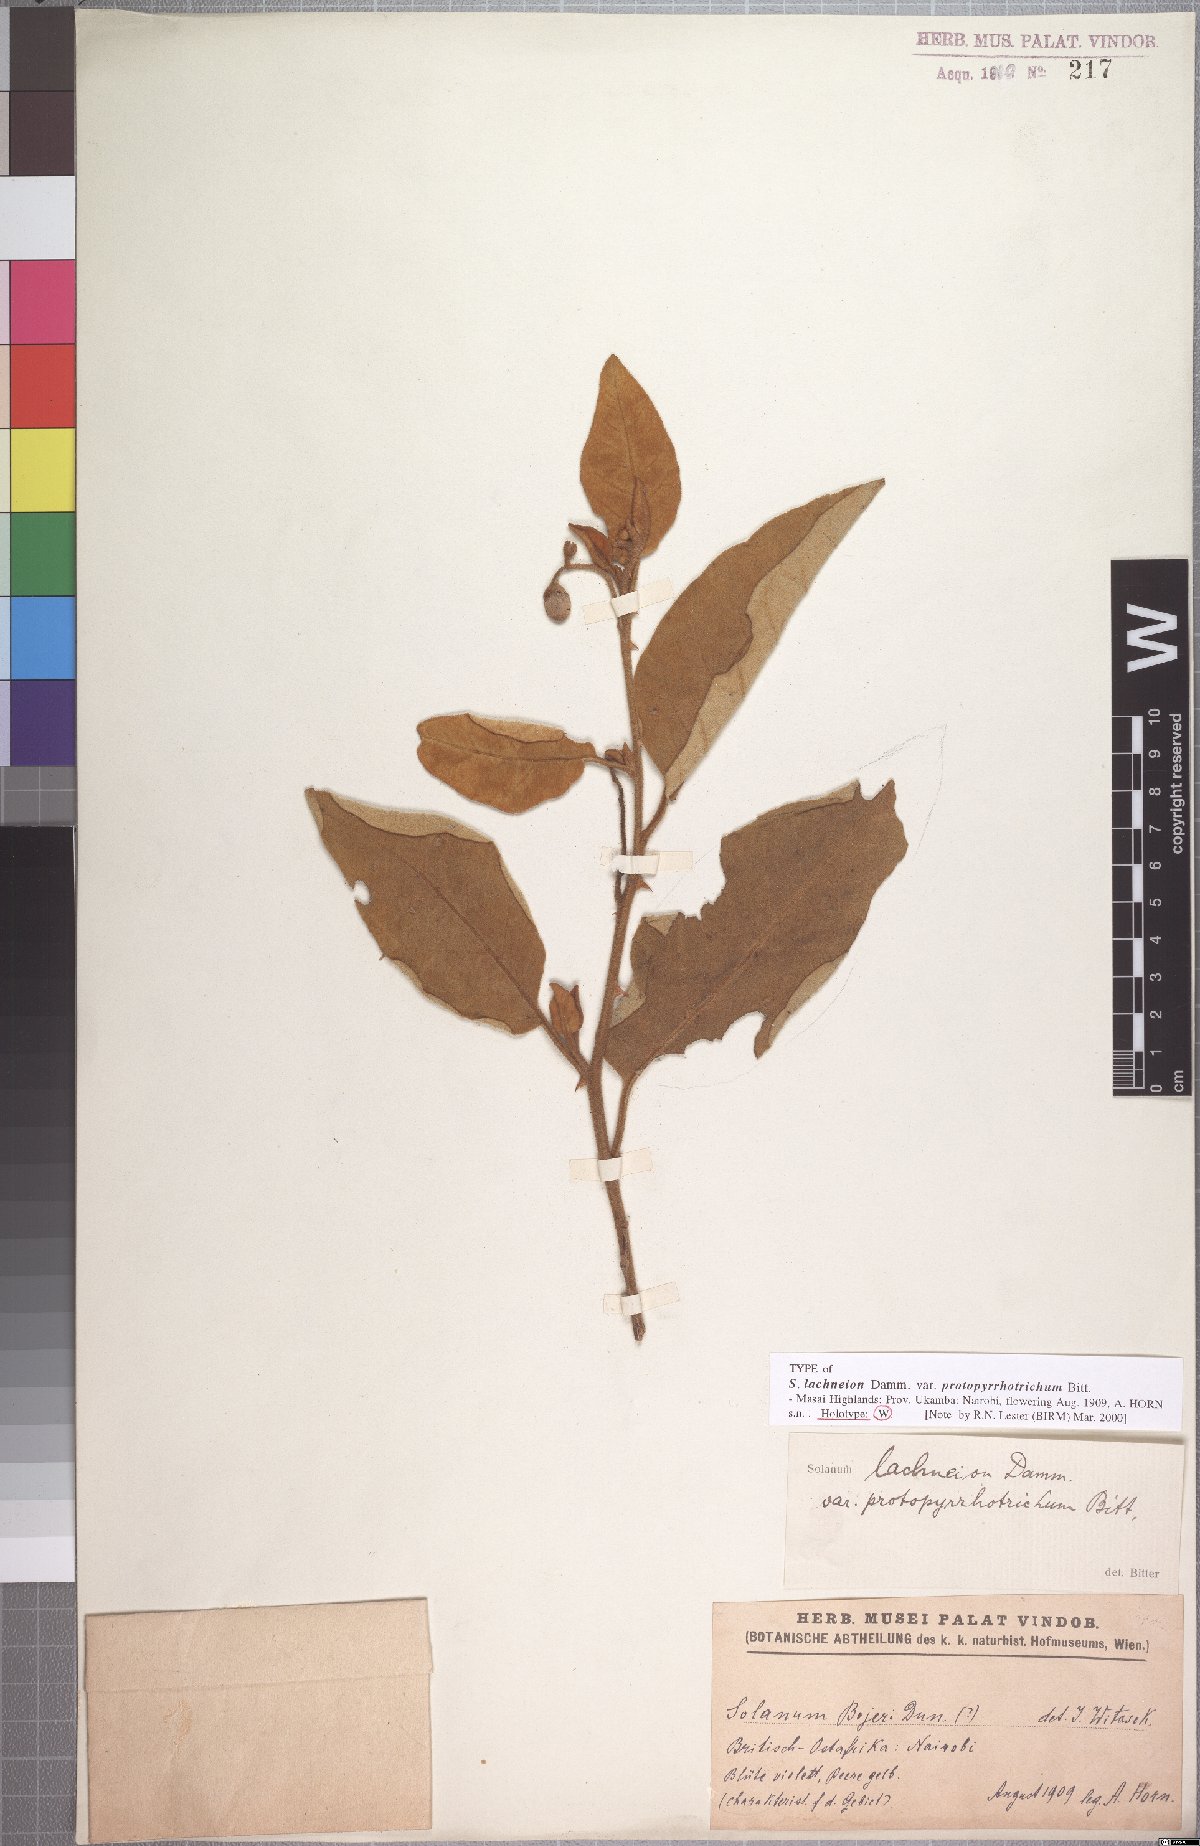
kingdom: Plantae
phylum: Tracheophyta
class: Magnoliopsida
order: Solanales
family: Solanaceae
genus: Solanum
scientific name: Solanum campylacanthum
